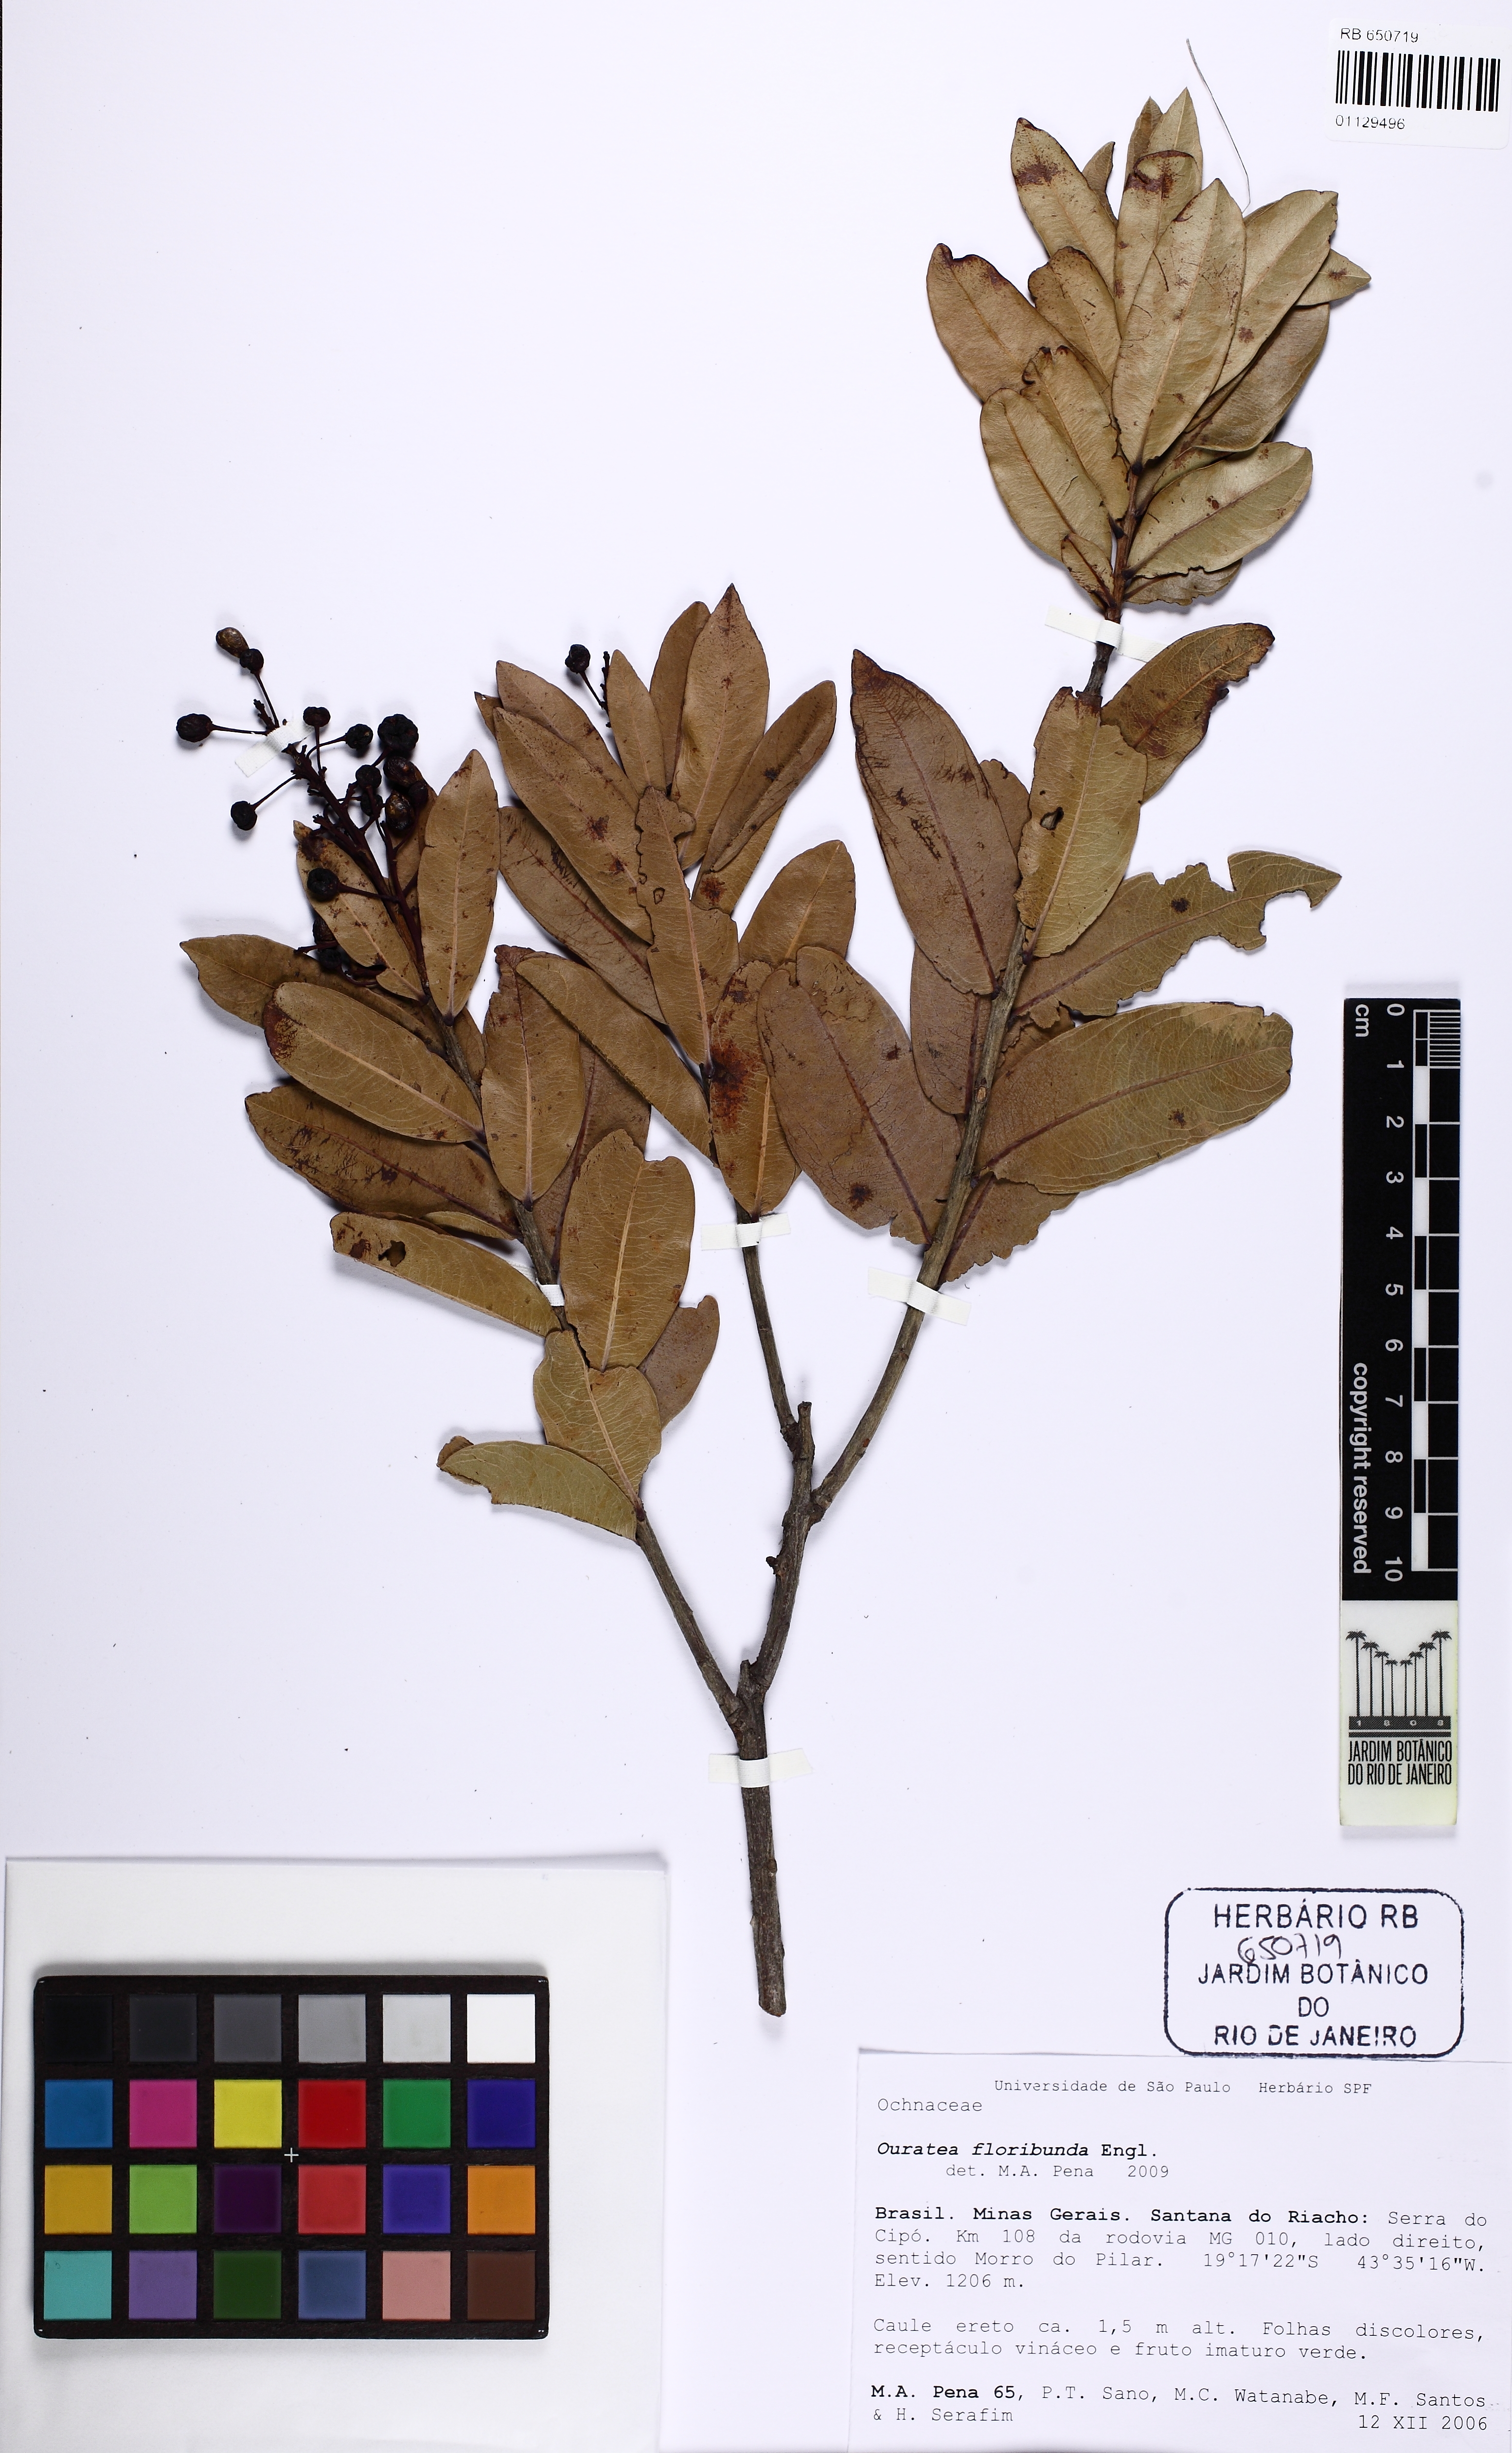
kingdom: Plantae
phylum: Tracheophyta
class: Magnoliopsida
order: Malpighiales
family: Ochnaceae
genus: Ouratea
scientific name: Ouratea floribunda
